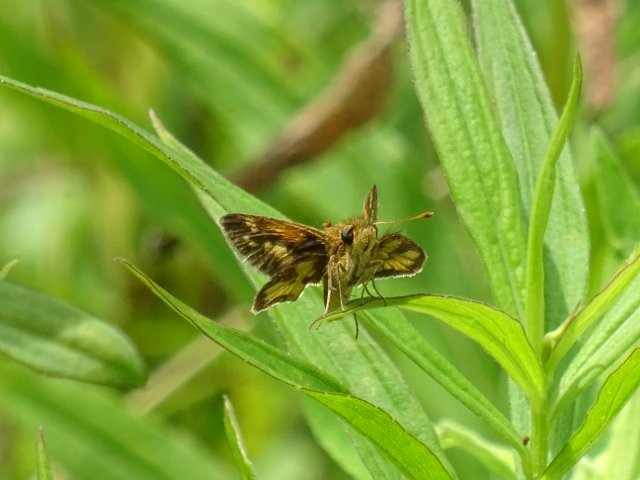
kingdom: Animalia
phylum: Arthropoda
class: Insecta
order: Lepidoptera
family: Hesperiidae
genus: Polites
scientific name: Polites coras
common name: Peck's Skipper
